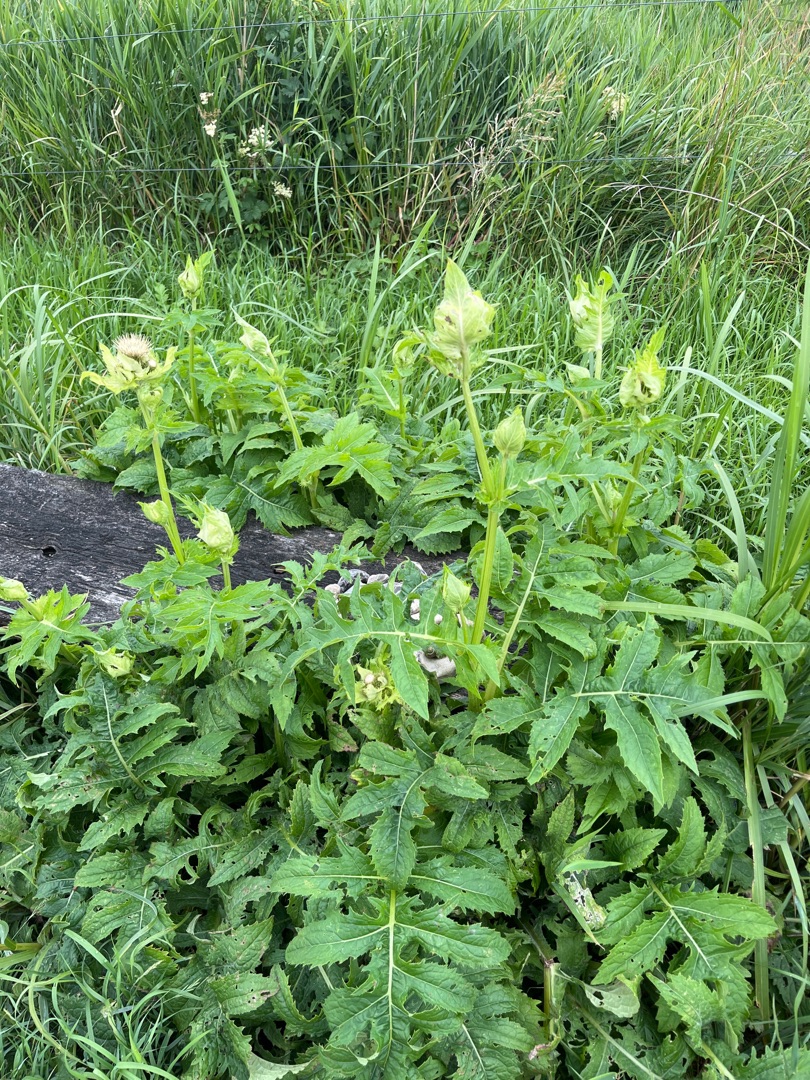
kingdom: Plantae
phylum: Tracheophyta
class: Magnoliopsida
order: Asterales
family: Asteraceae
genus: Cirsium
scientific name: Cirsium oleraceum
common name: Kål-tidsel
